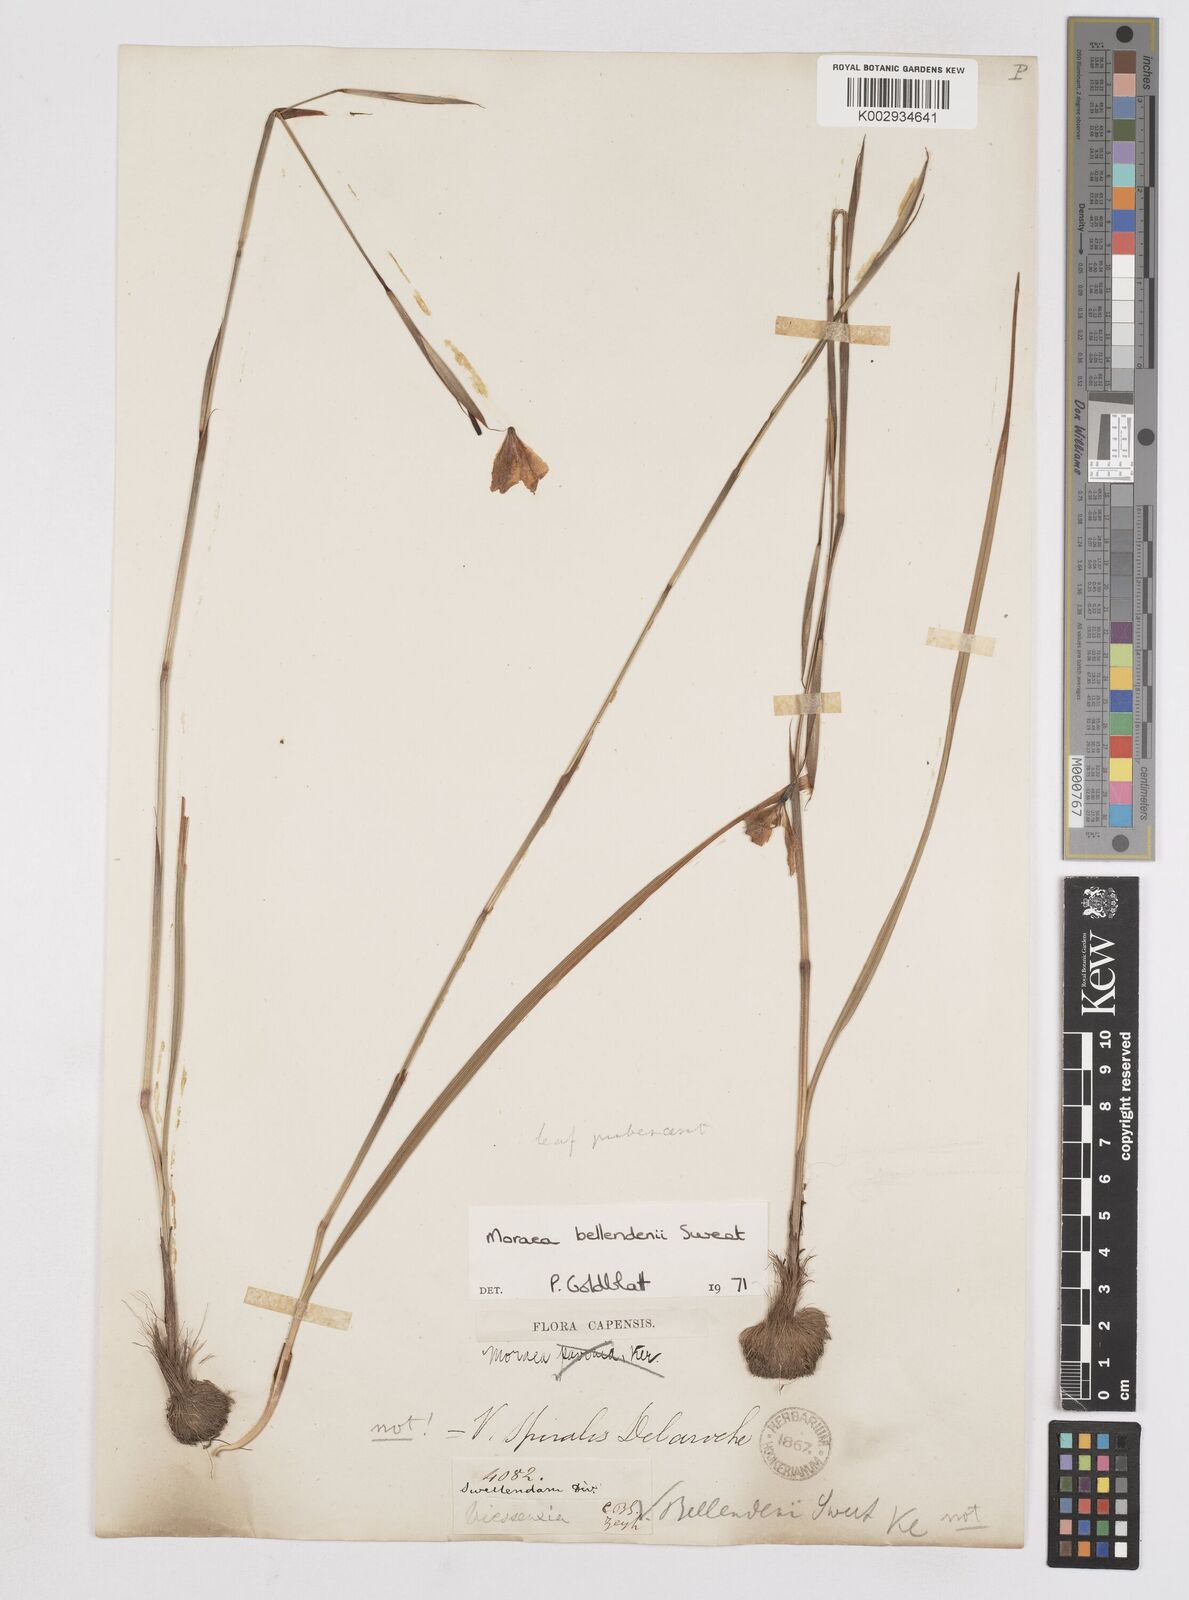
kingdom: Plantae
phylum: Tracheophyta
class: Liliopsida
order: Asparagales
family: Iridaceae
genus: Moraea
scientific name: Moraea bellendenii
